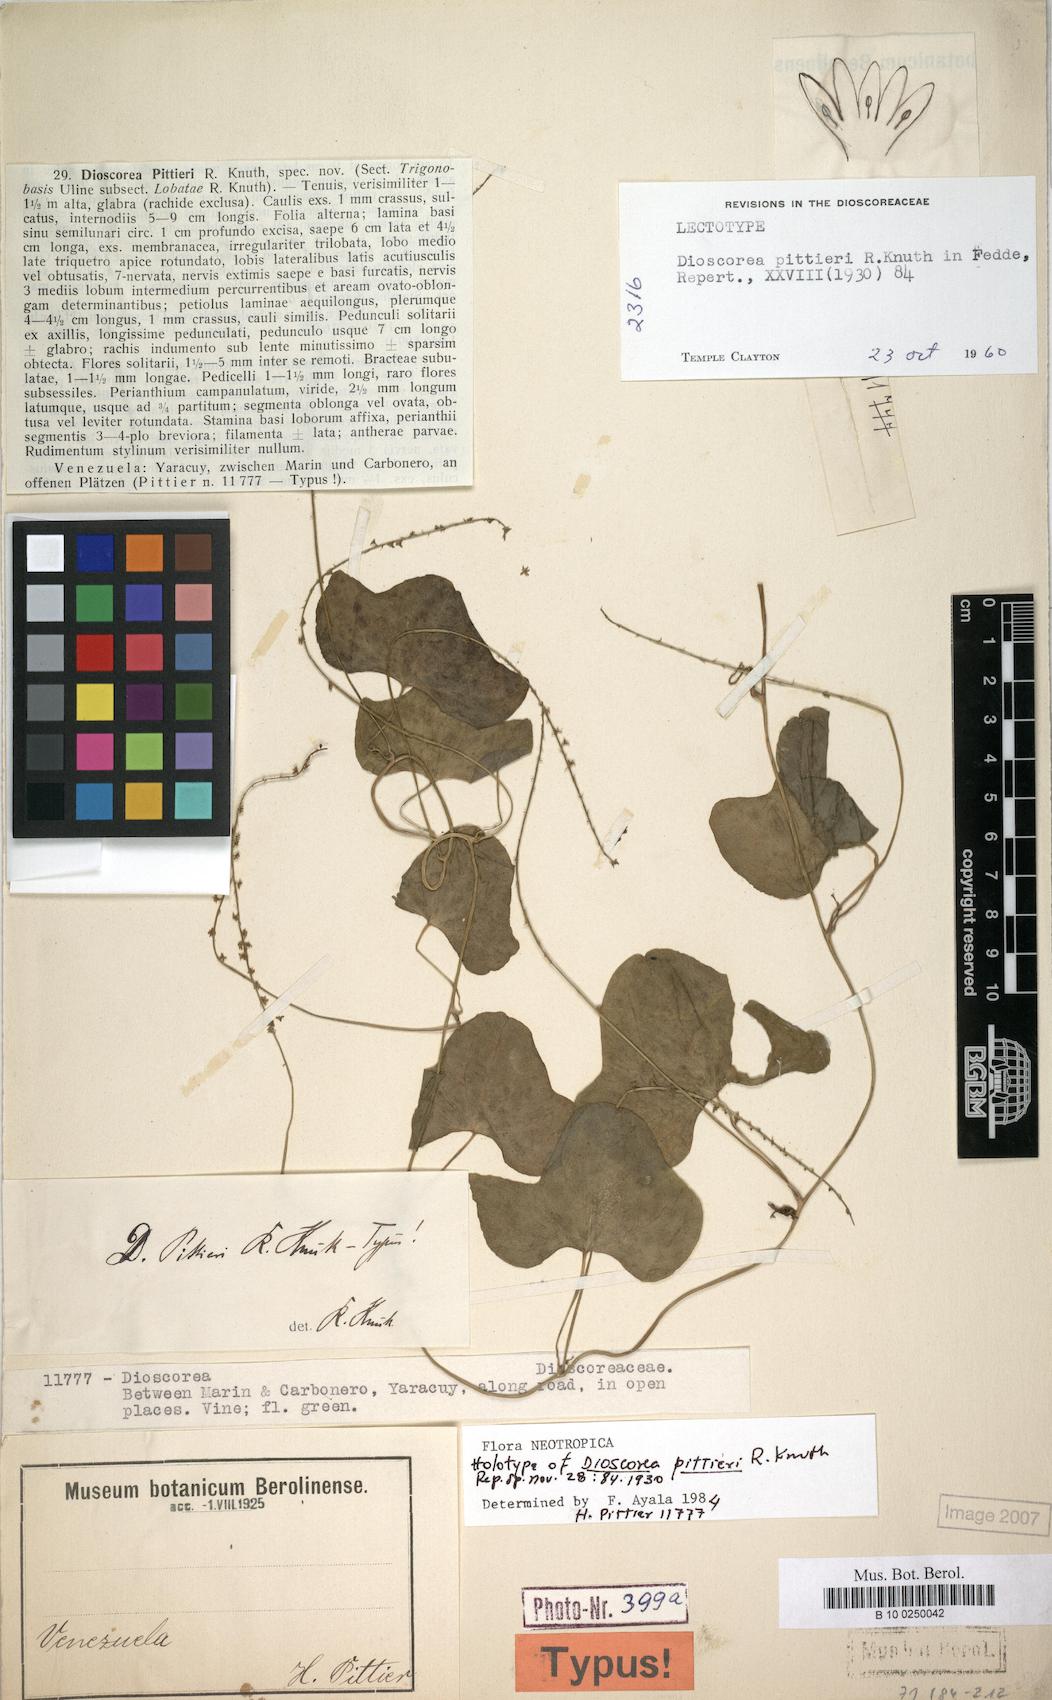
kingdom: Plantae
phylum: Tracheophyta
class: Liliopsida
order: Dioscoreales
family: Dioscoreaceae
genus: Dioscorea
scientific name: Dioscorea pittieri
